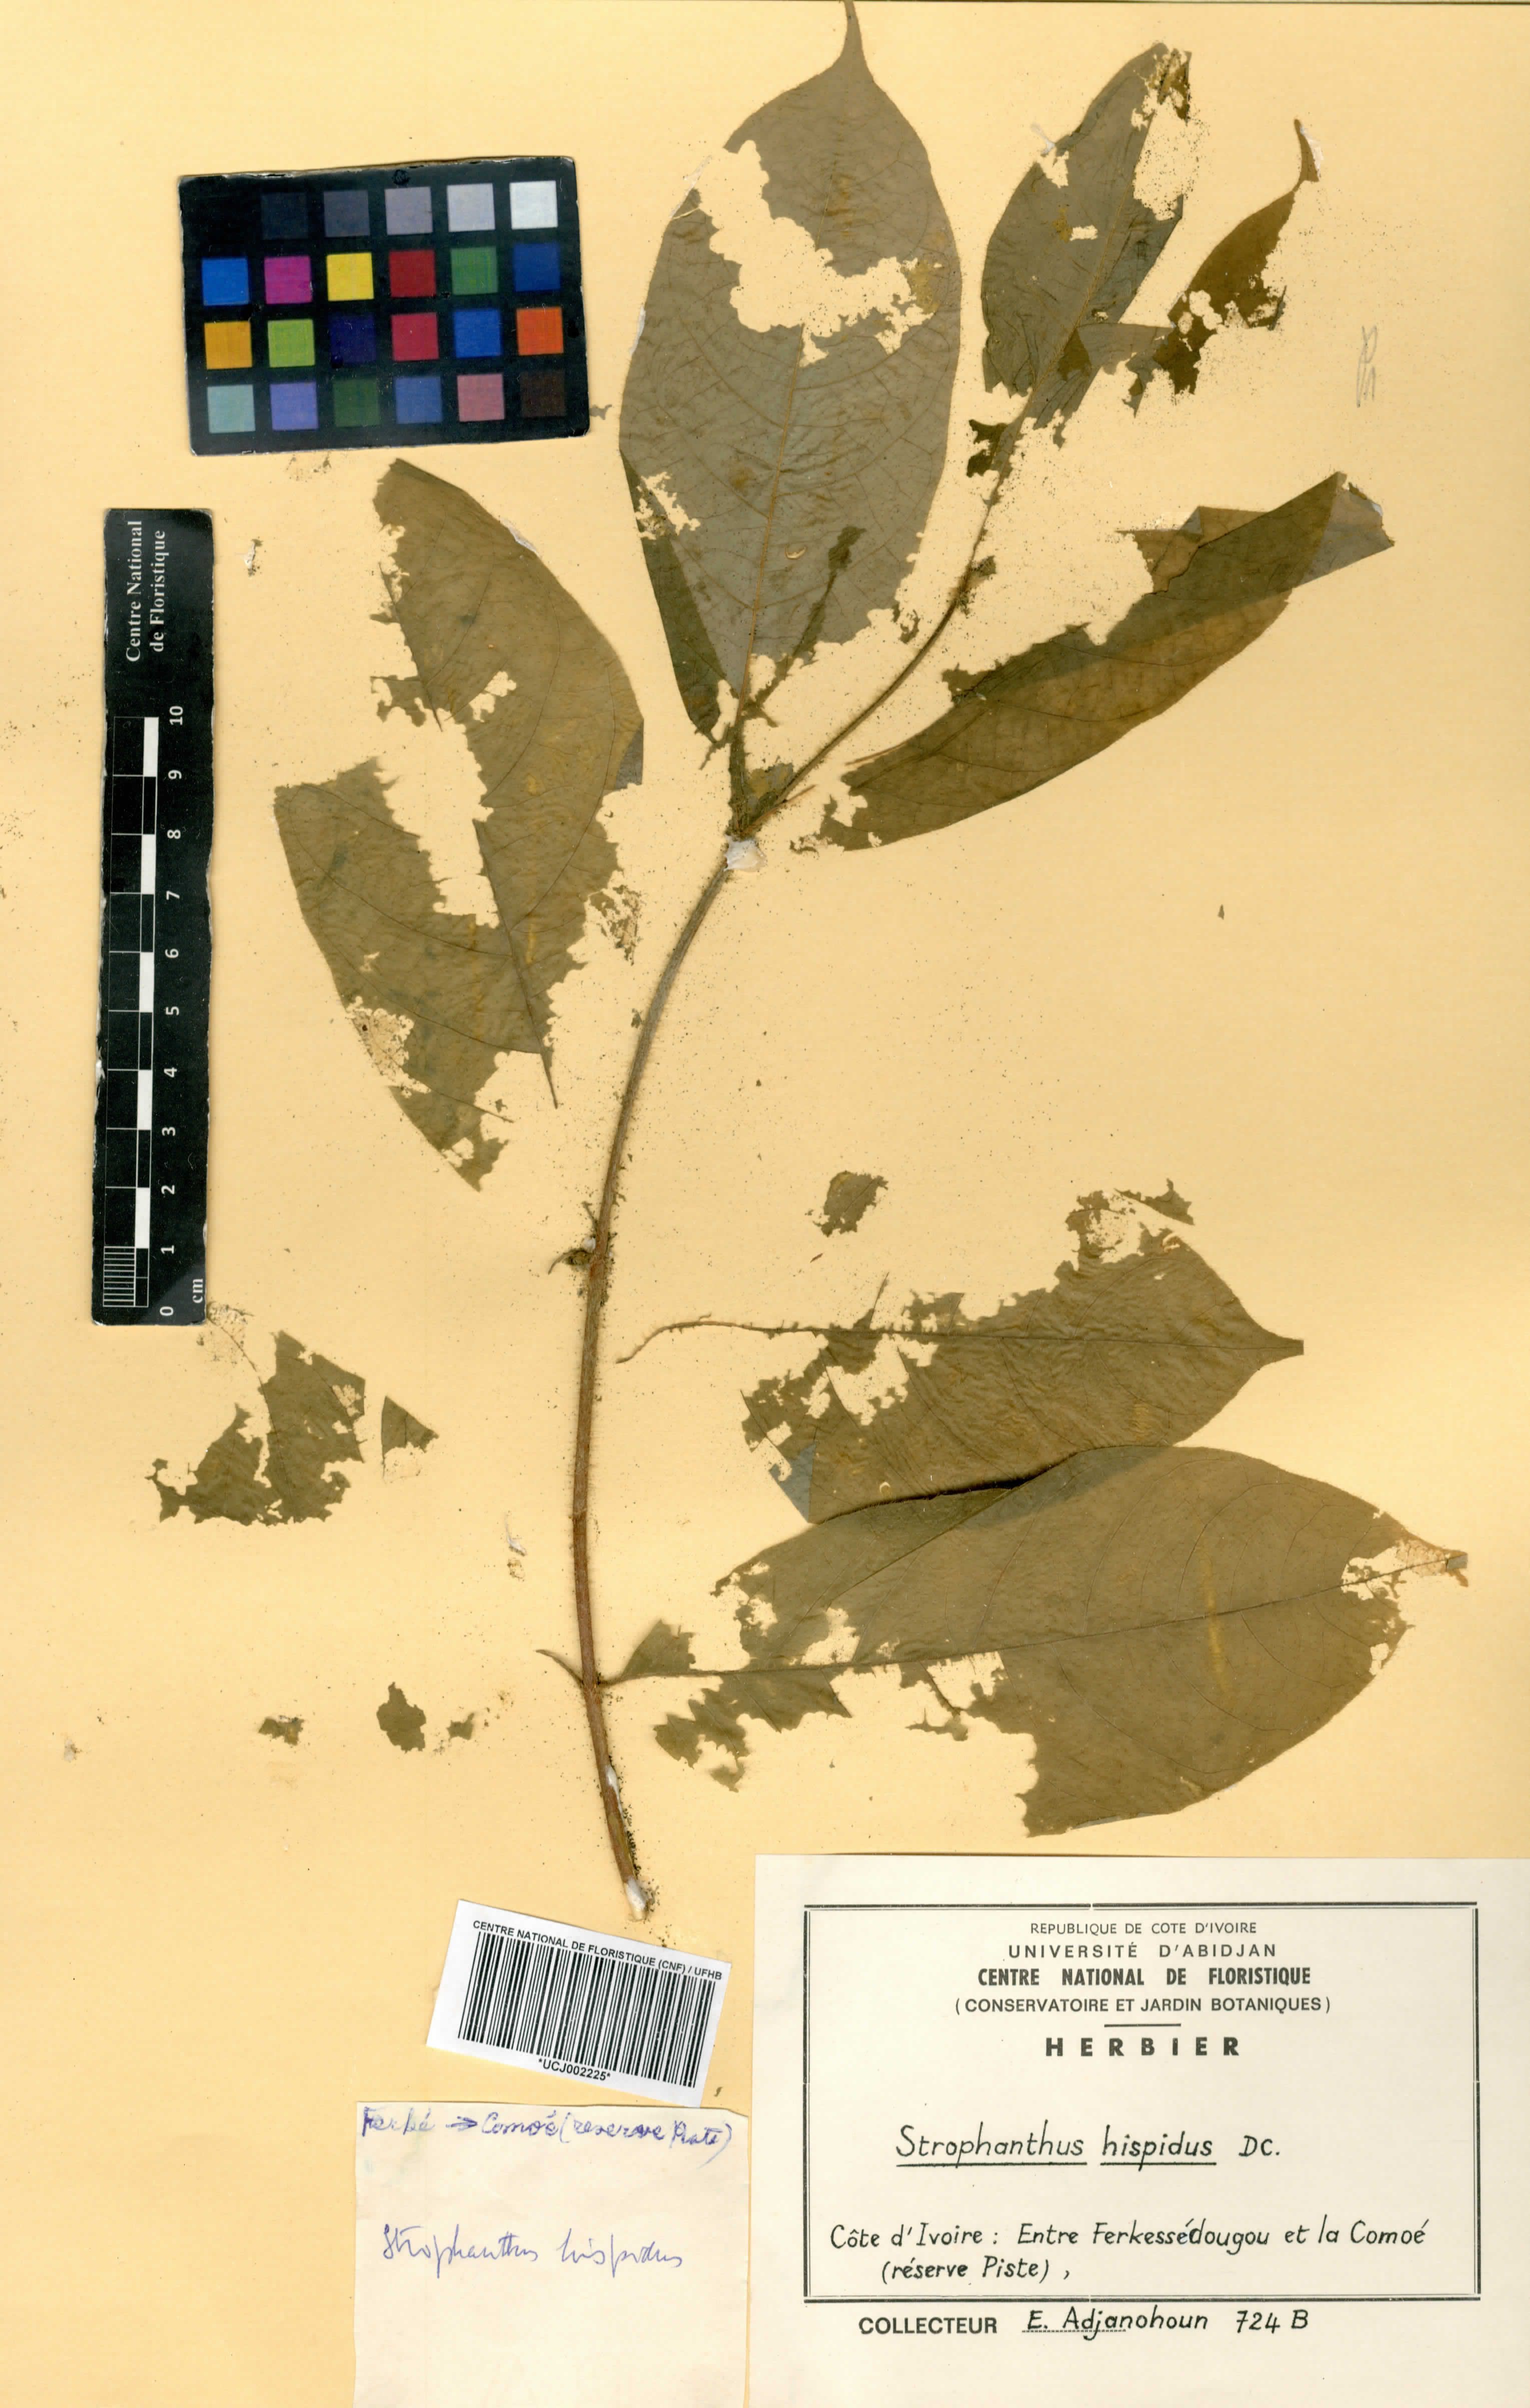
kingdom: Plantae
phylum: Tracheophyta
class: Magnoliopsida
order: Gentianales
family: Apocynaceae
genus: Strophanthus
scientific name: Strophanthus hispidus
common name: Hairy strophanthus
